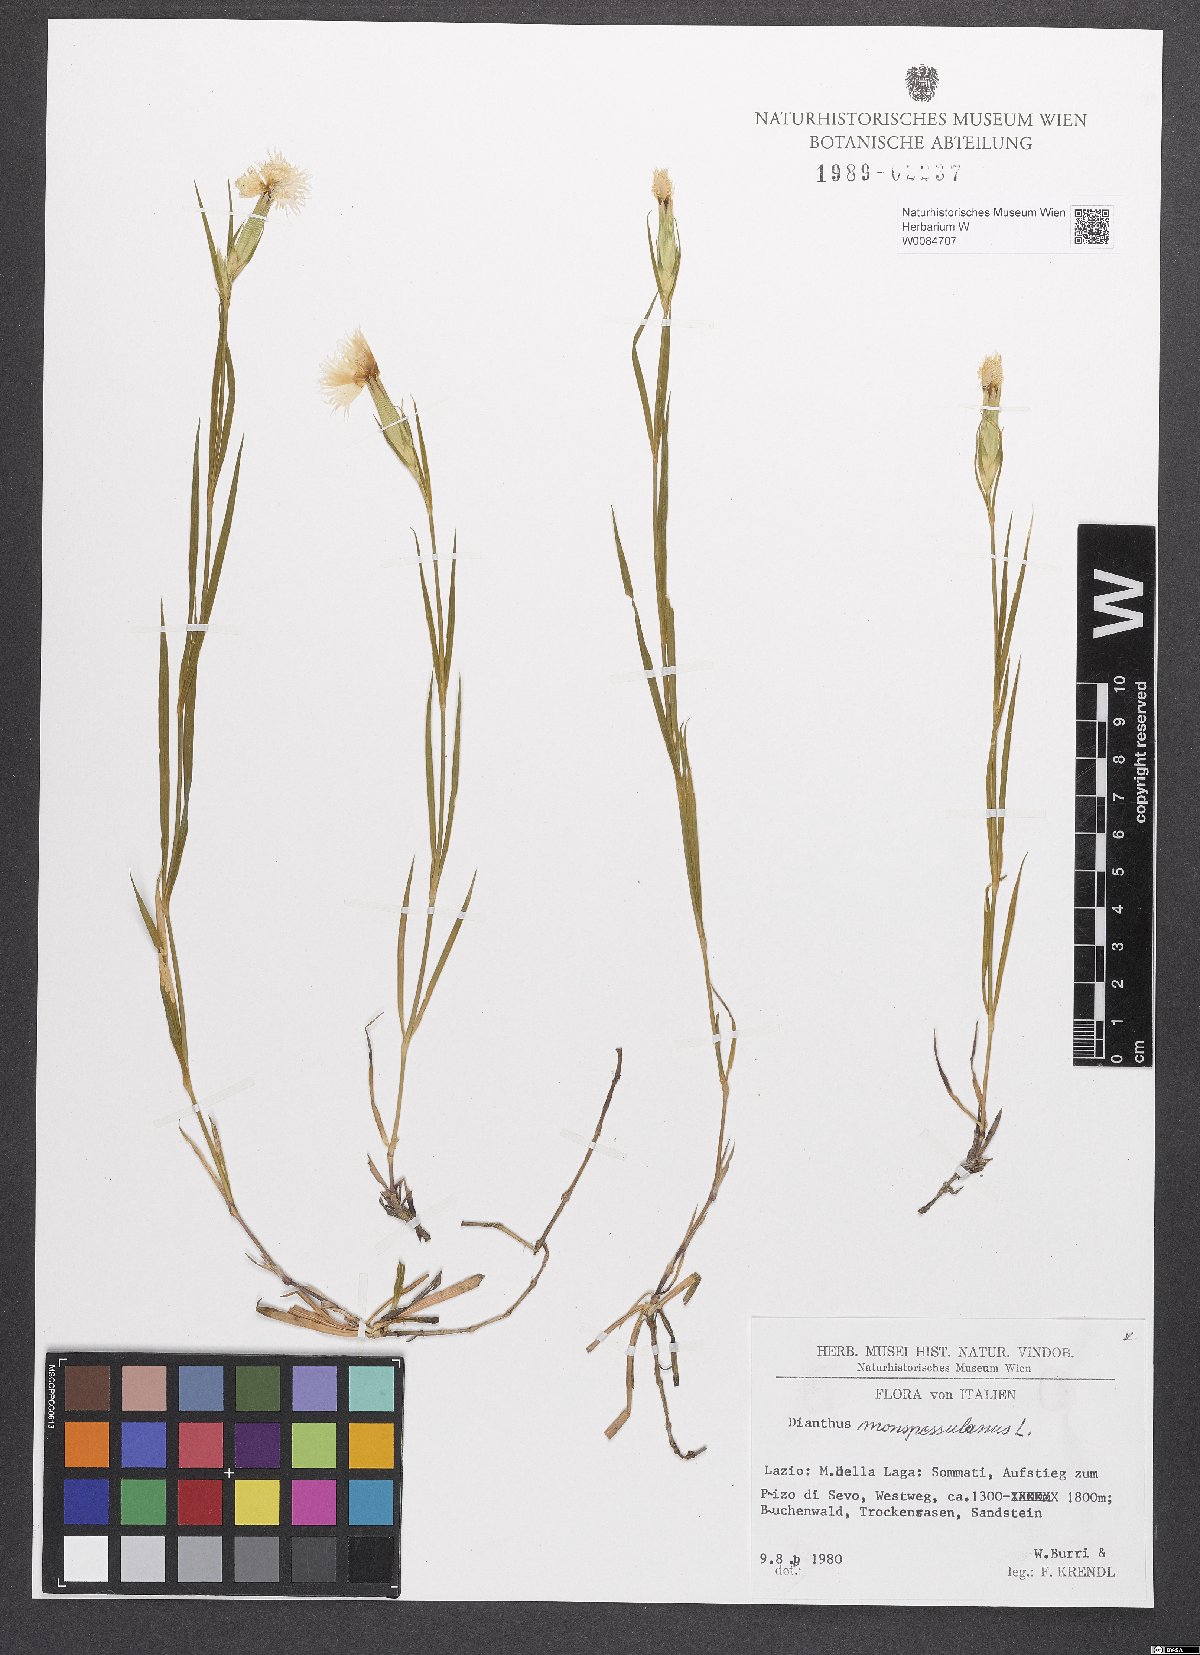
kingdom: Plantae
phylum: Tracheophyta
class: Magnoliopsida
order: Caryophyllales
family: Caryophyllaceae
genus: Dianthus
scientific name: Dianthus hyssopifolius
